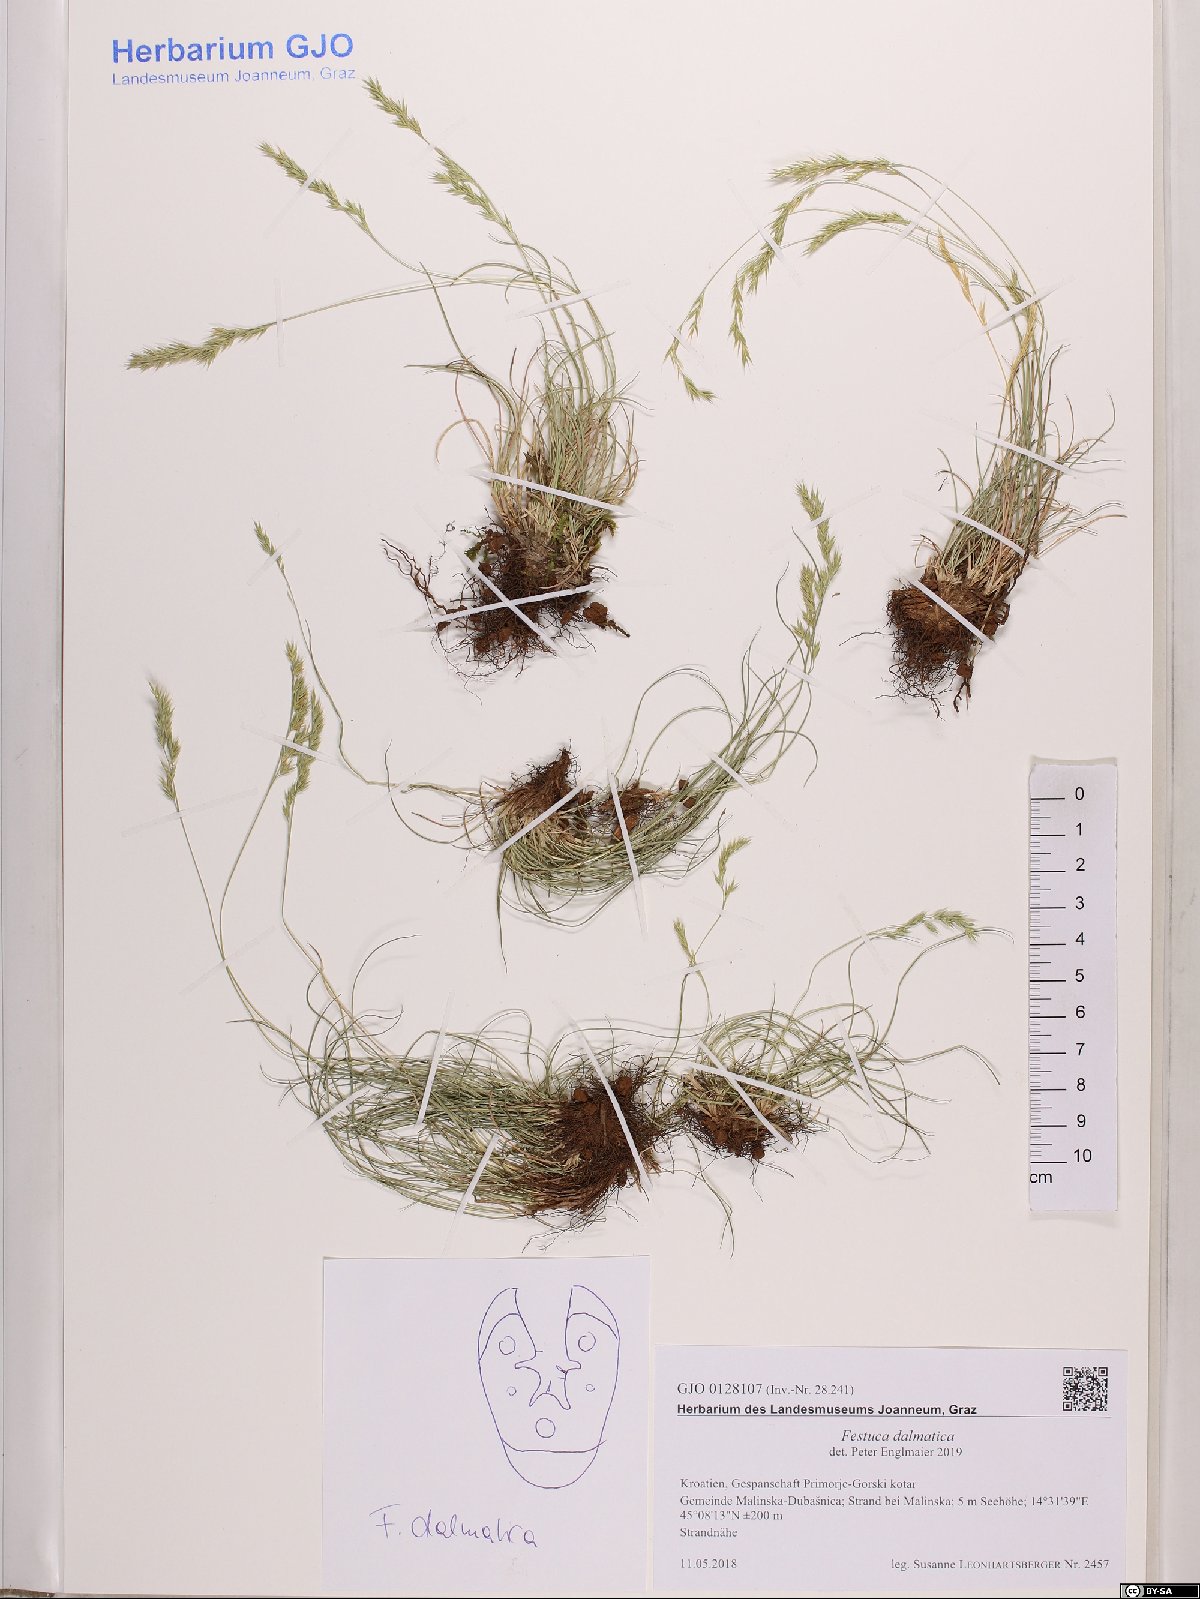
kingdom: Plantae
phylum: Tracheophyta
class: Liliopsida
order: Poales
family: Poaceae
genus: Festuca
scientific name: Festuca dalmatica
